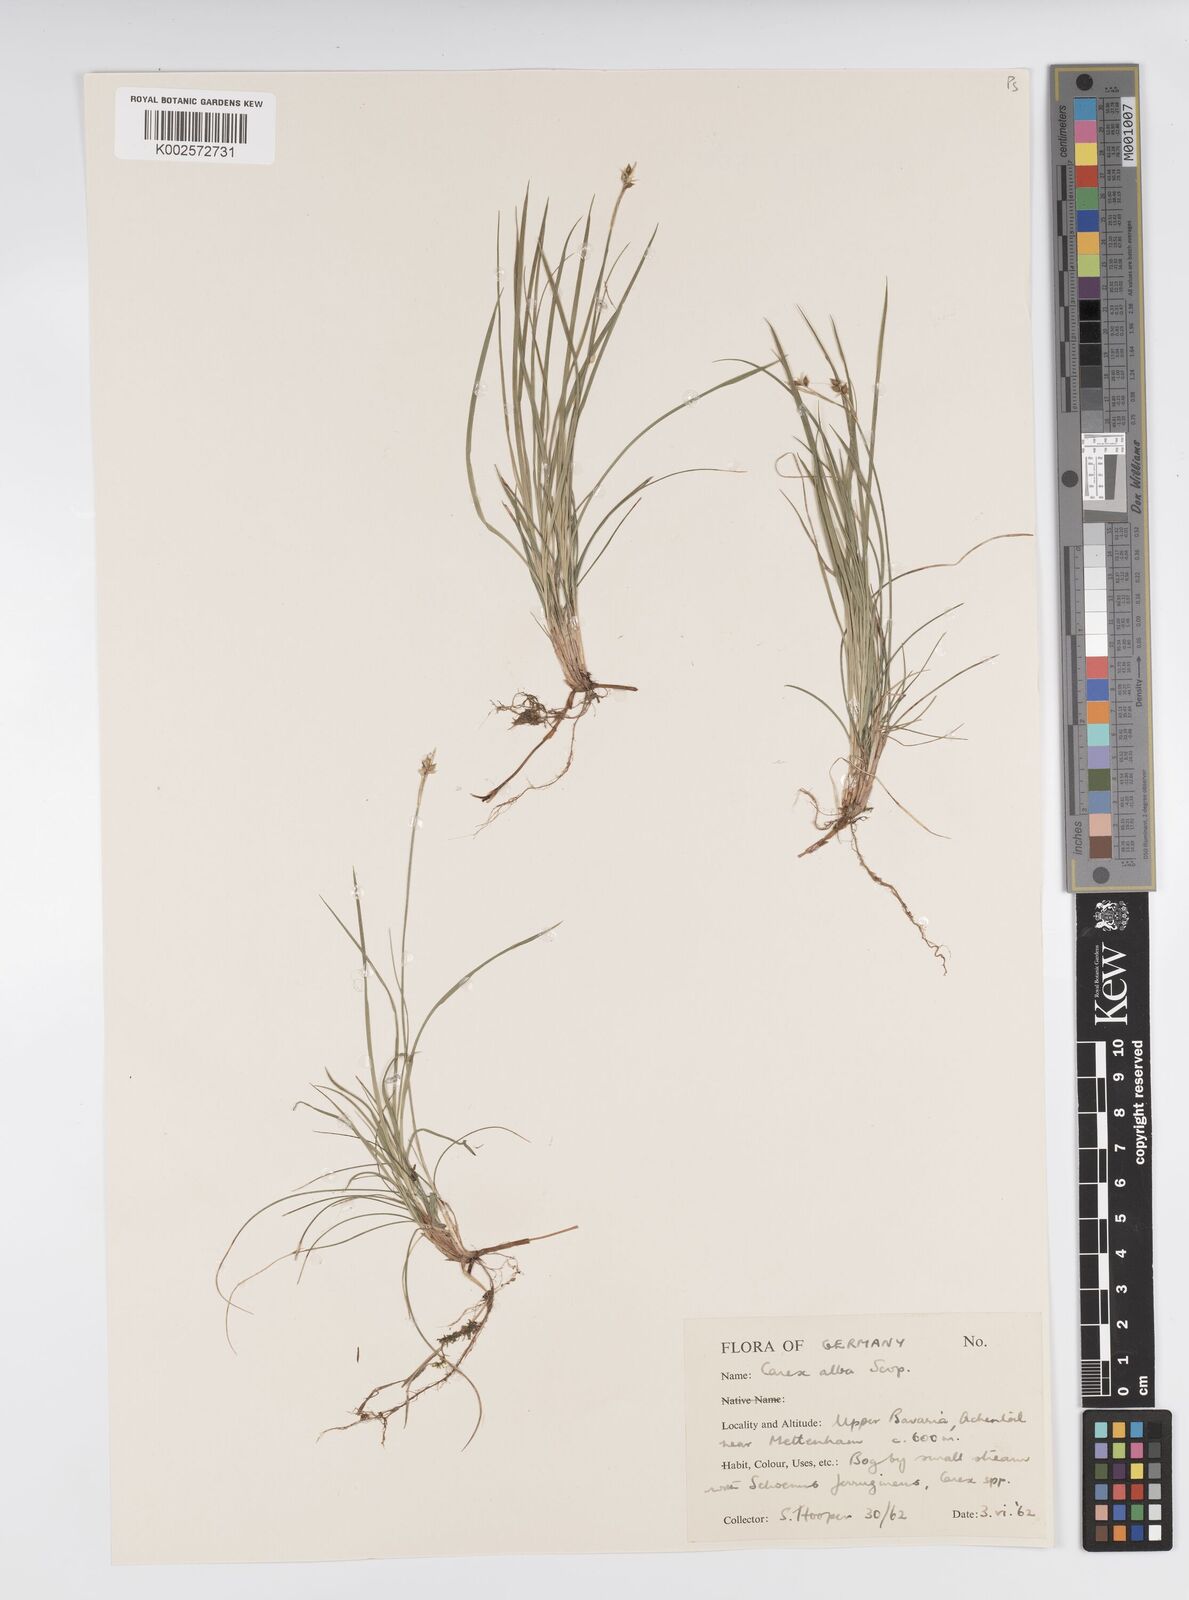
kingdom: Plantae
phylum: Tracheophyta
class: Liliopsida
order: Poales
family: Cyperaceae
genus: Carex
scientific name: Carex alba
